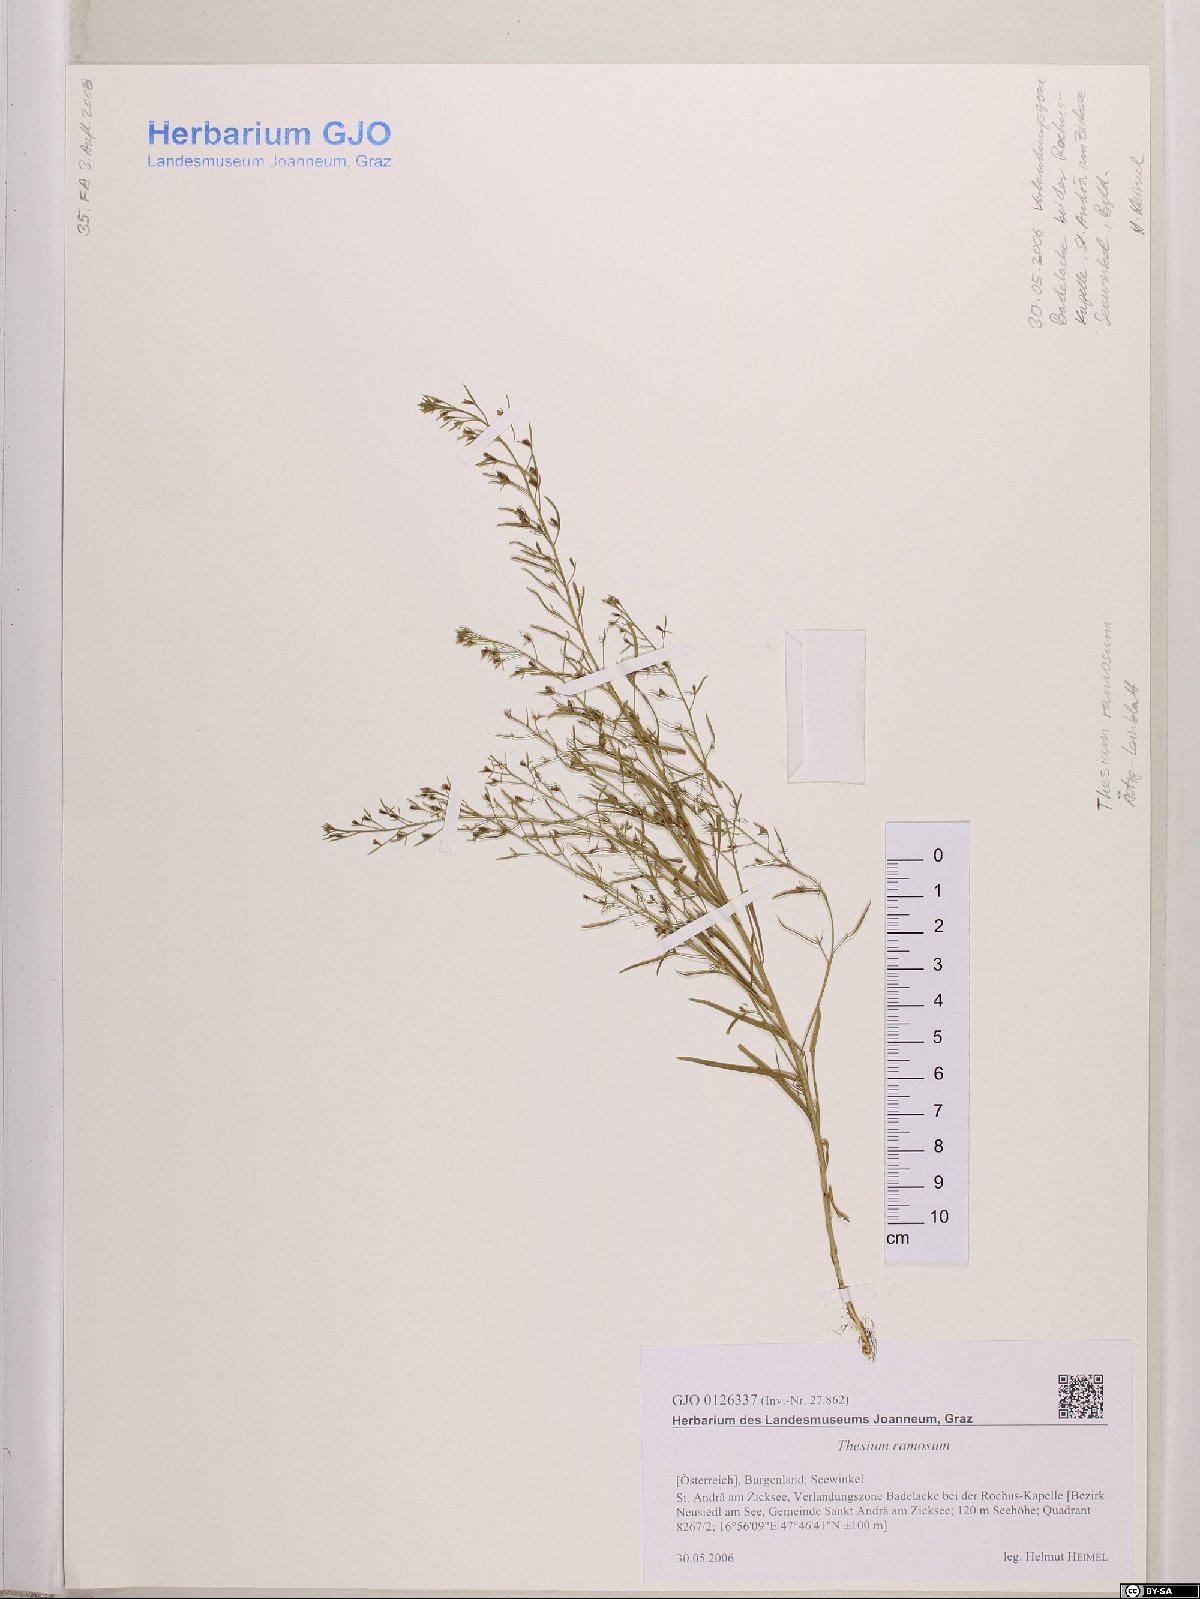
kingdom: Plantae
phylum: Tracheophyta
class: Magnoliopsida
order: Santalales
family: Thesiaceae
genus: Thesium
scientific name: Thesium ramosum
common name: Field thesium
